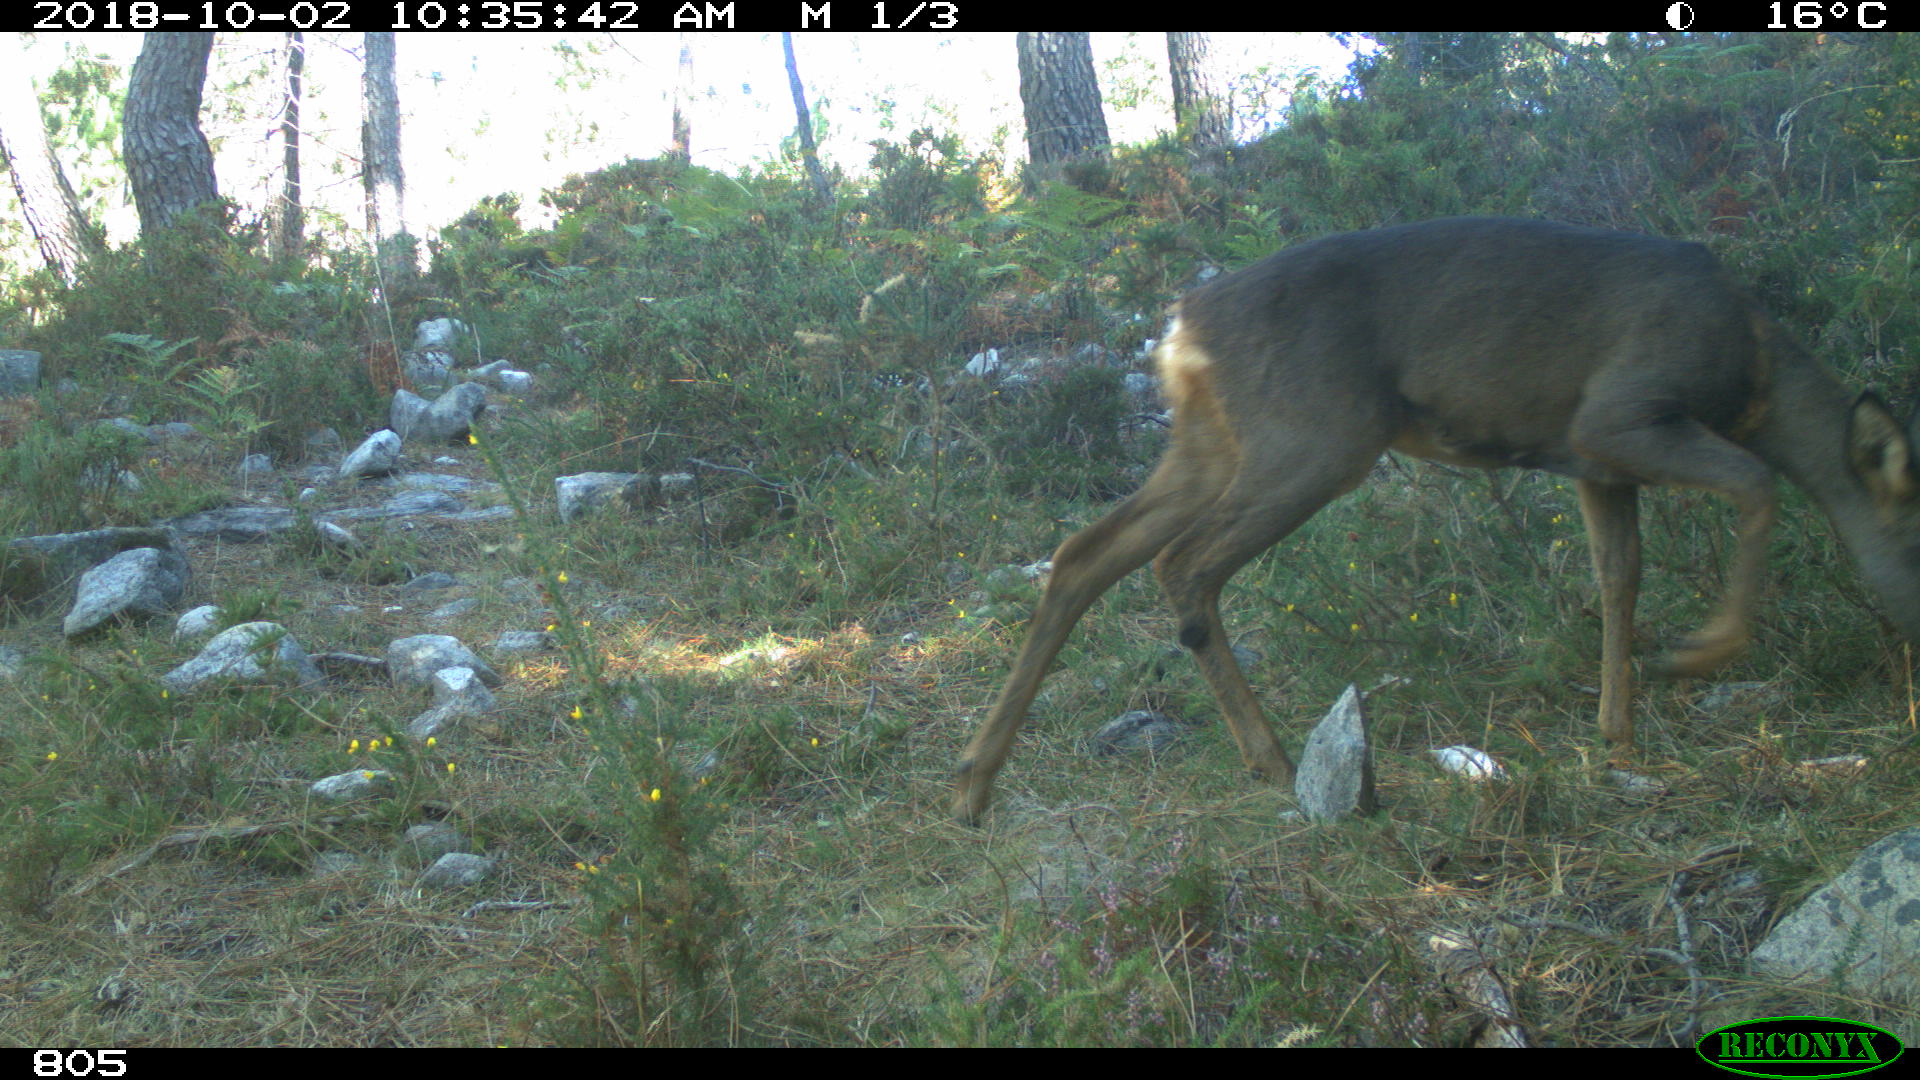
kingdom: Animalia
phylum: Chordata
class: Mammalia
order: Artiodactyla
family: Cervidae
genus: Capreolus
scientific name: Capreolus capreolus
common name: Western roe deer
